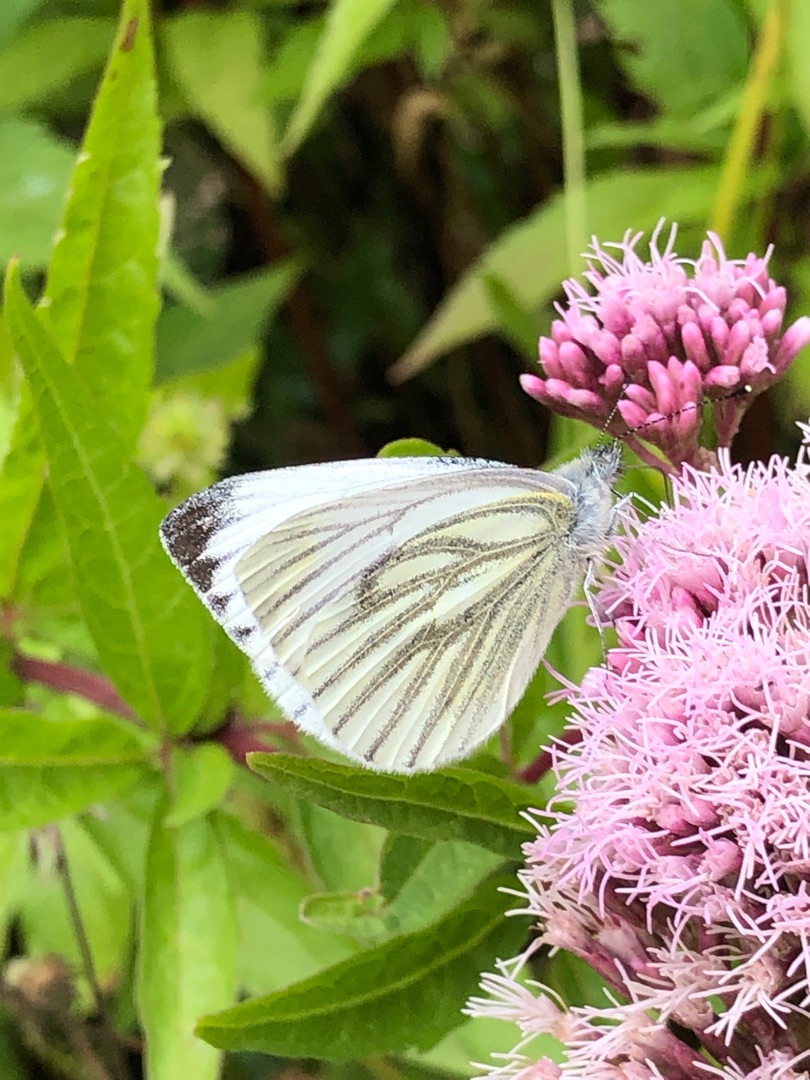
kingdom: Animalia
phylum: Arthropoda
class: Insecta
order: Lepidoptera
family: Pieridae
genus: Pieris
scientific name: Pieris napi
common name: Grønåret kålsommerfugl
